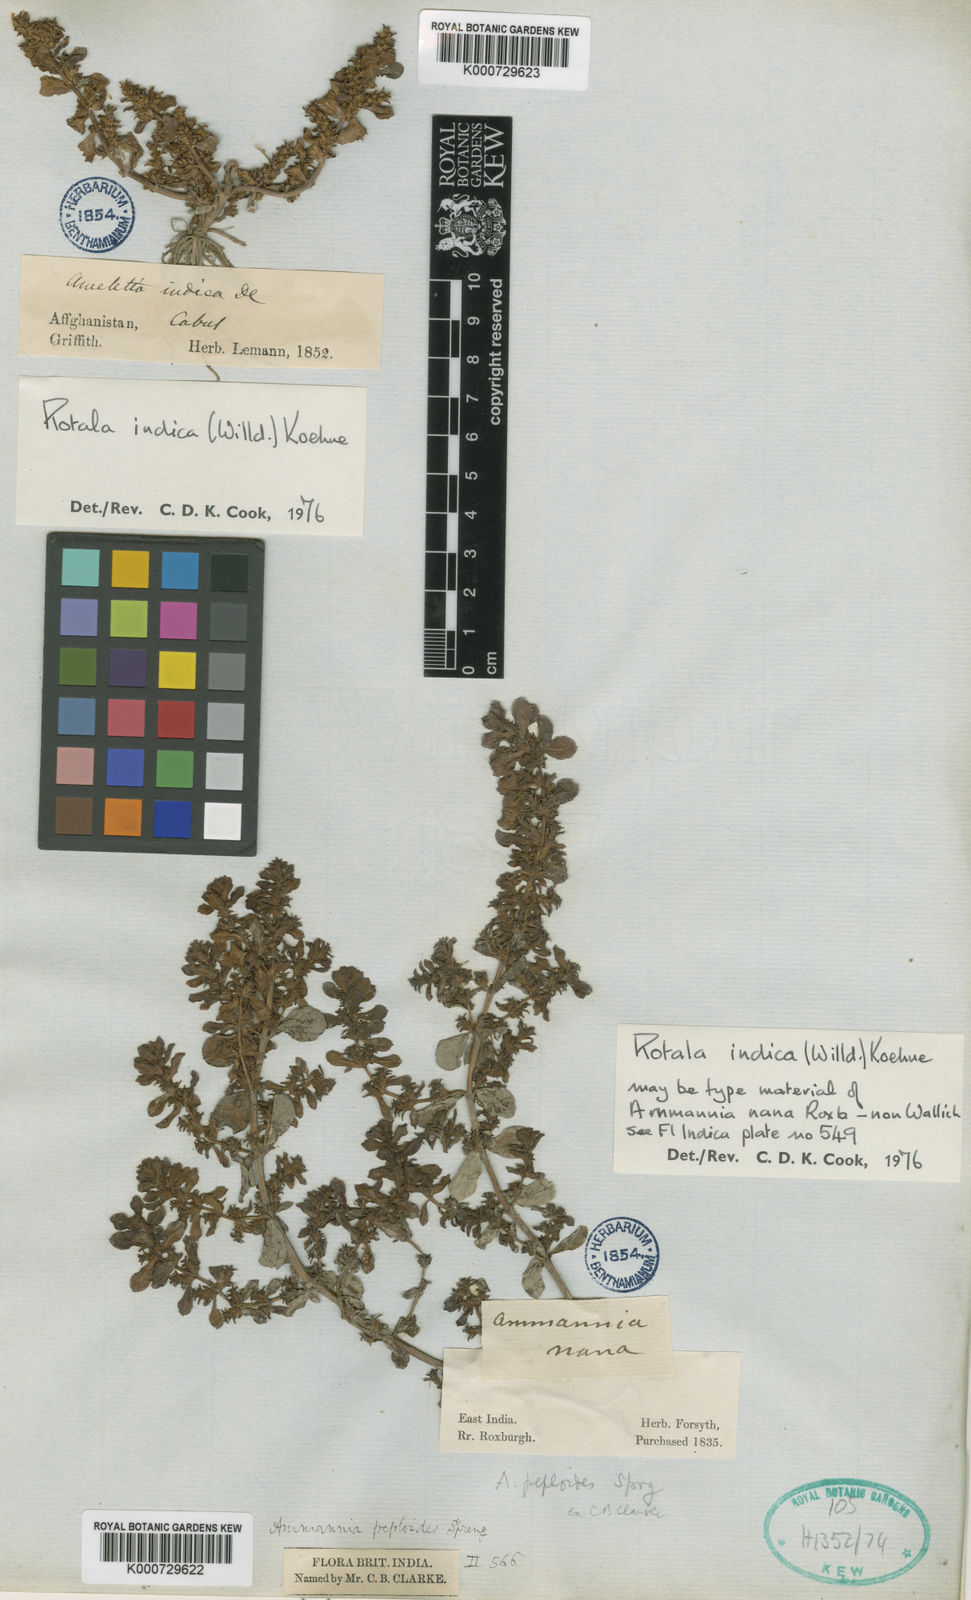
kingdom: Plantae
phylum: Tracheophyta
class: Magnoliopsida
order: Myrtales
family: Lythraceae
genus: Rotala
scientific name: Rotala indica
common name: Indian toothcup
